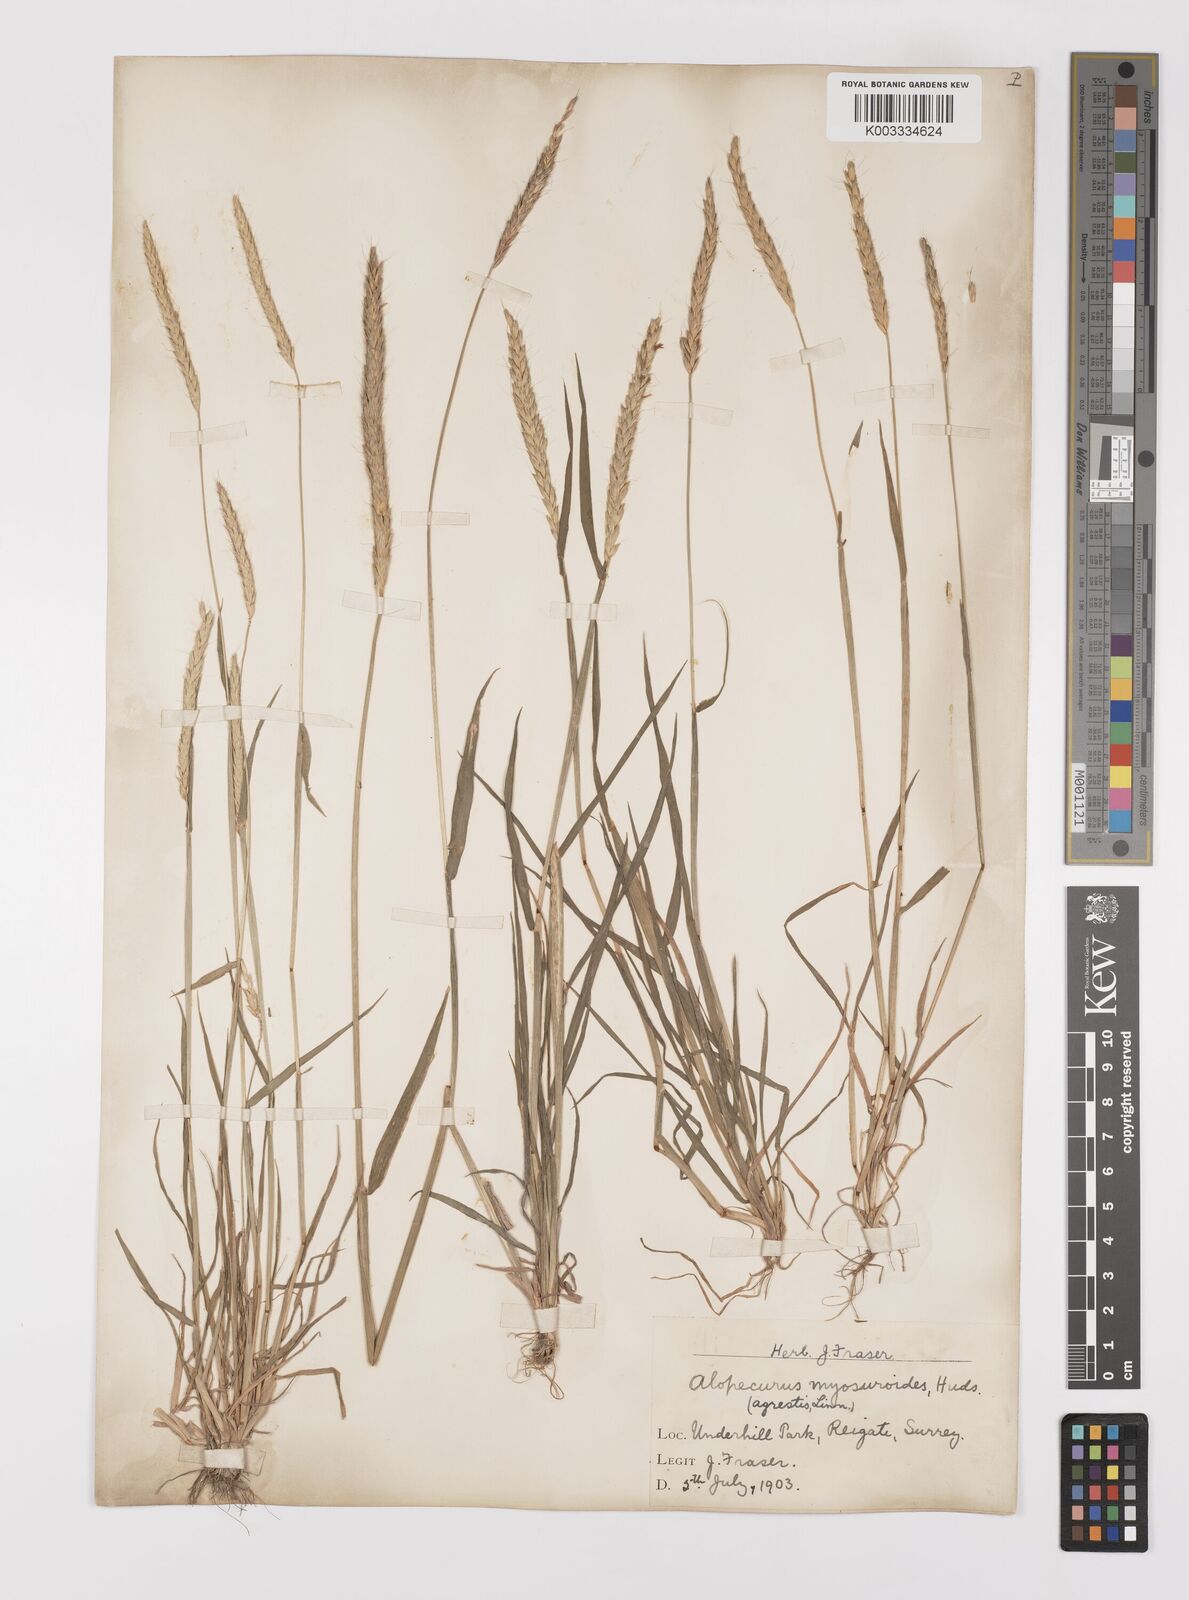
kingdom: Plantae
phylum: Tracheophyta
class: Liliopsida
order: Poales
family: Poaceae
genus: Alopecurus
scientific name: Alopecurus myosuroides
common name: Black-grass
